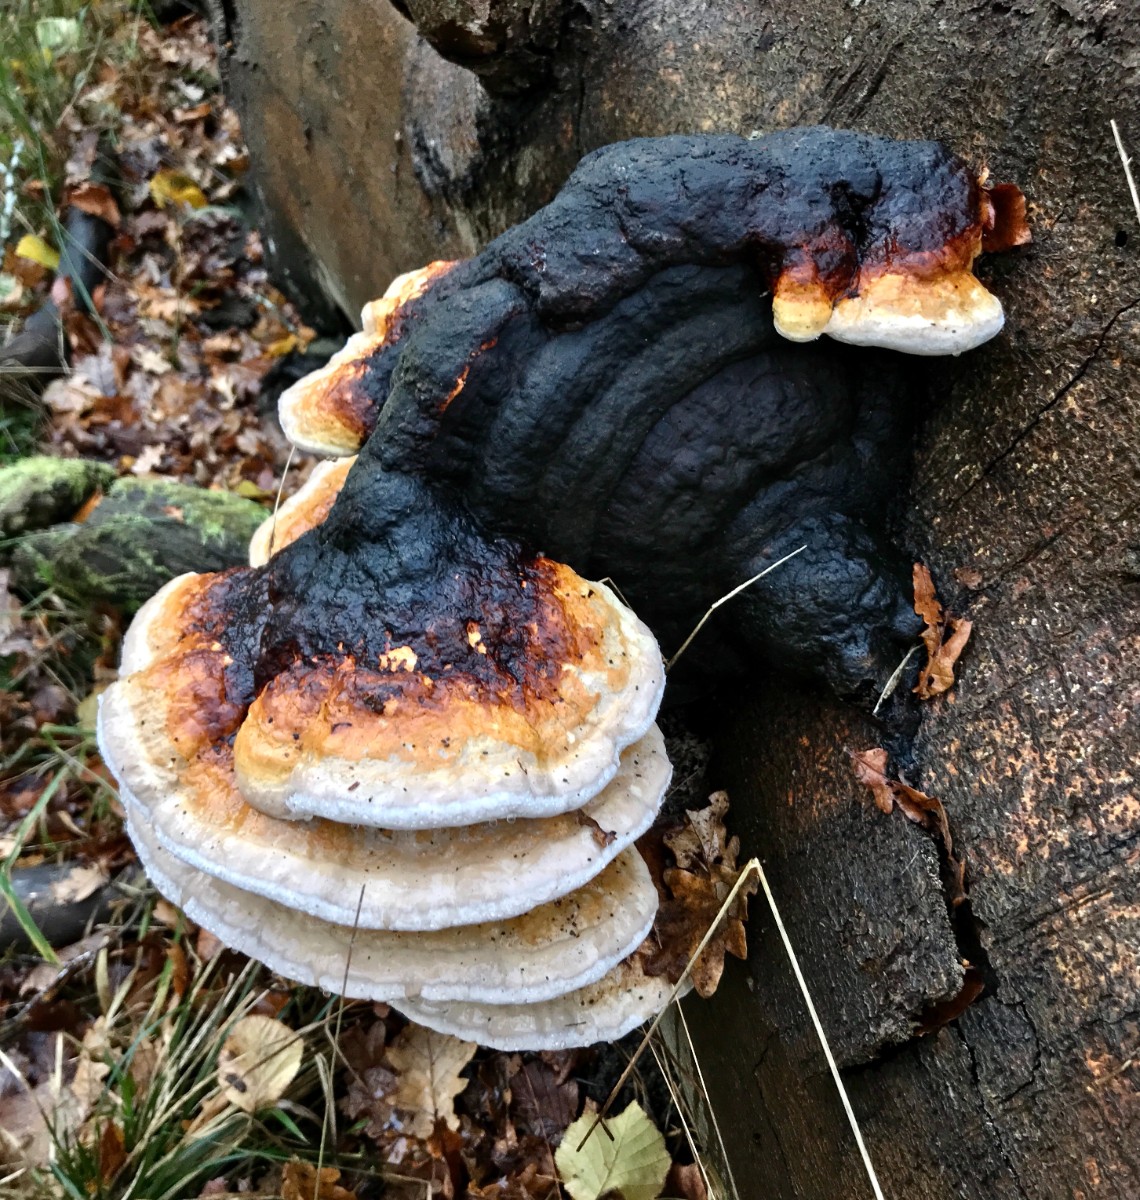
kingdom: Fungi
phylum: Basidiomycota
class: Agaricomycetes
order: Polyporales
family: Fomitopsidaceae
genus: Fomitopsis
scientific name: Fomitopsis pinicola
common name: randbæltet hovporesvamp
